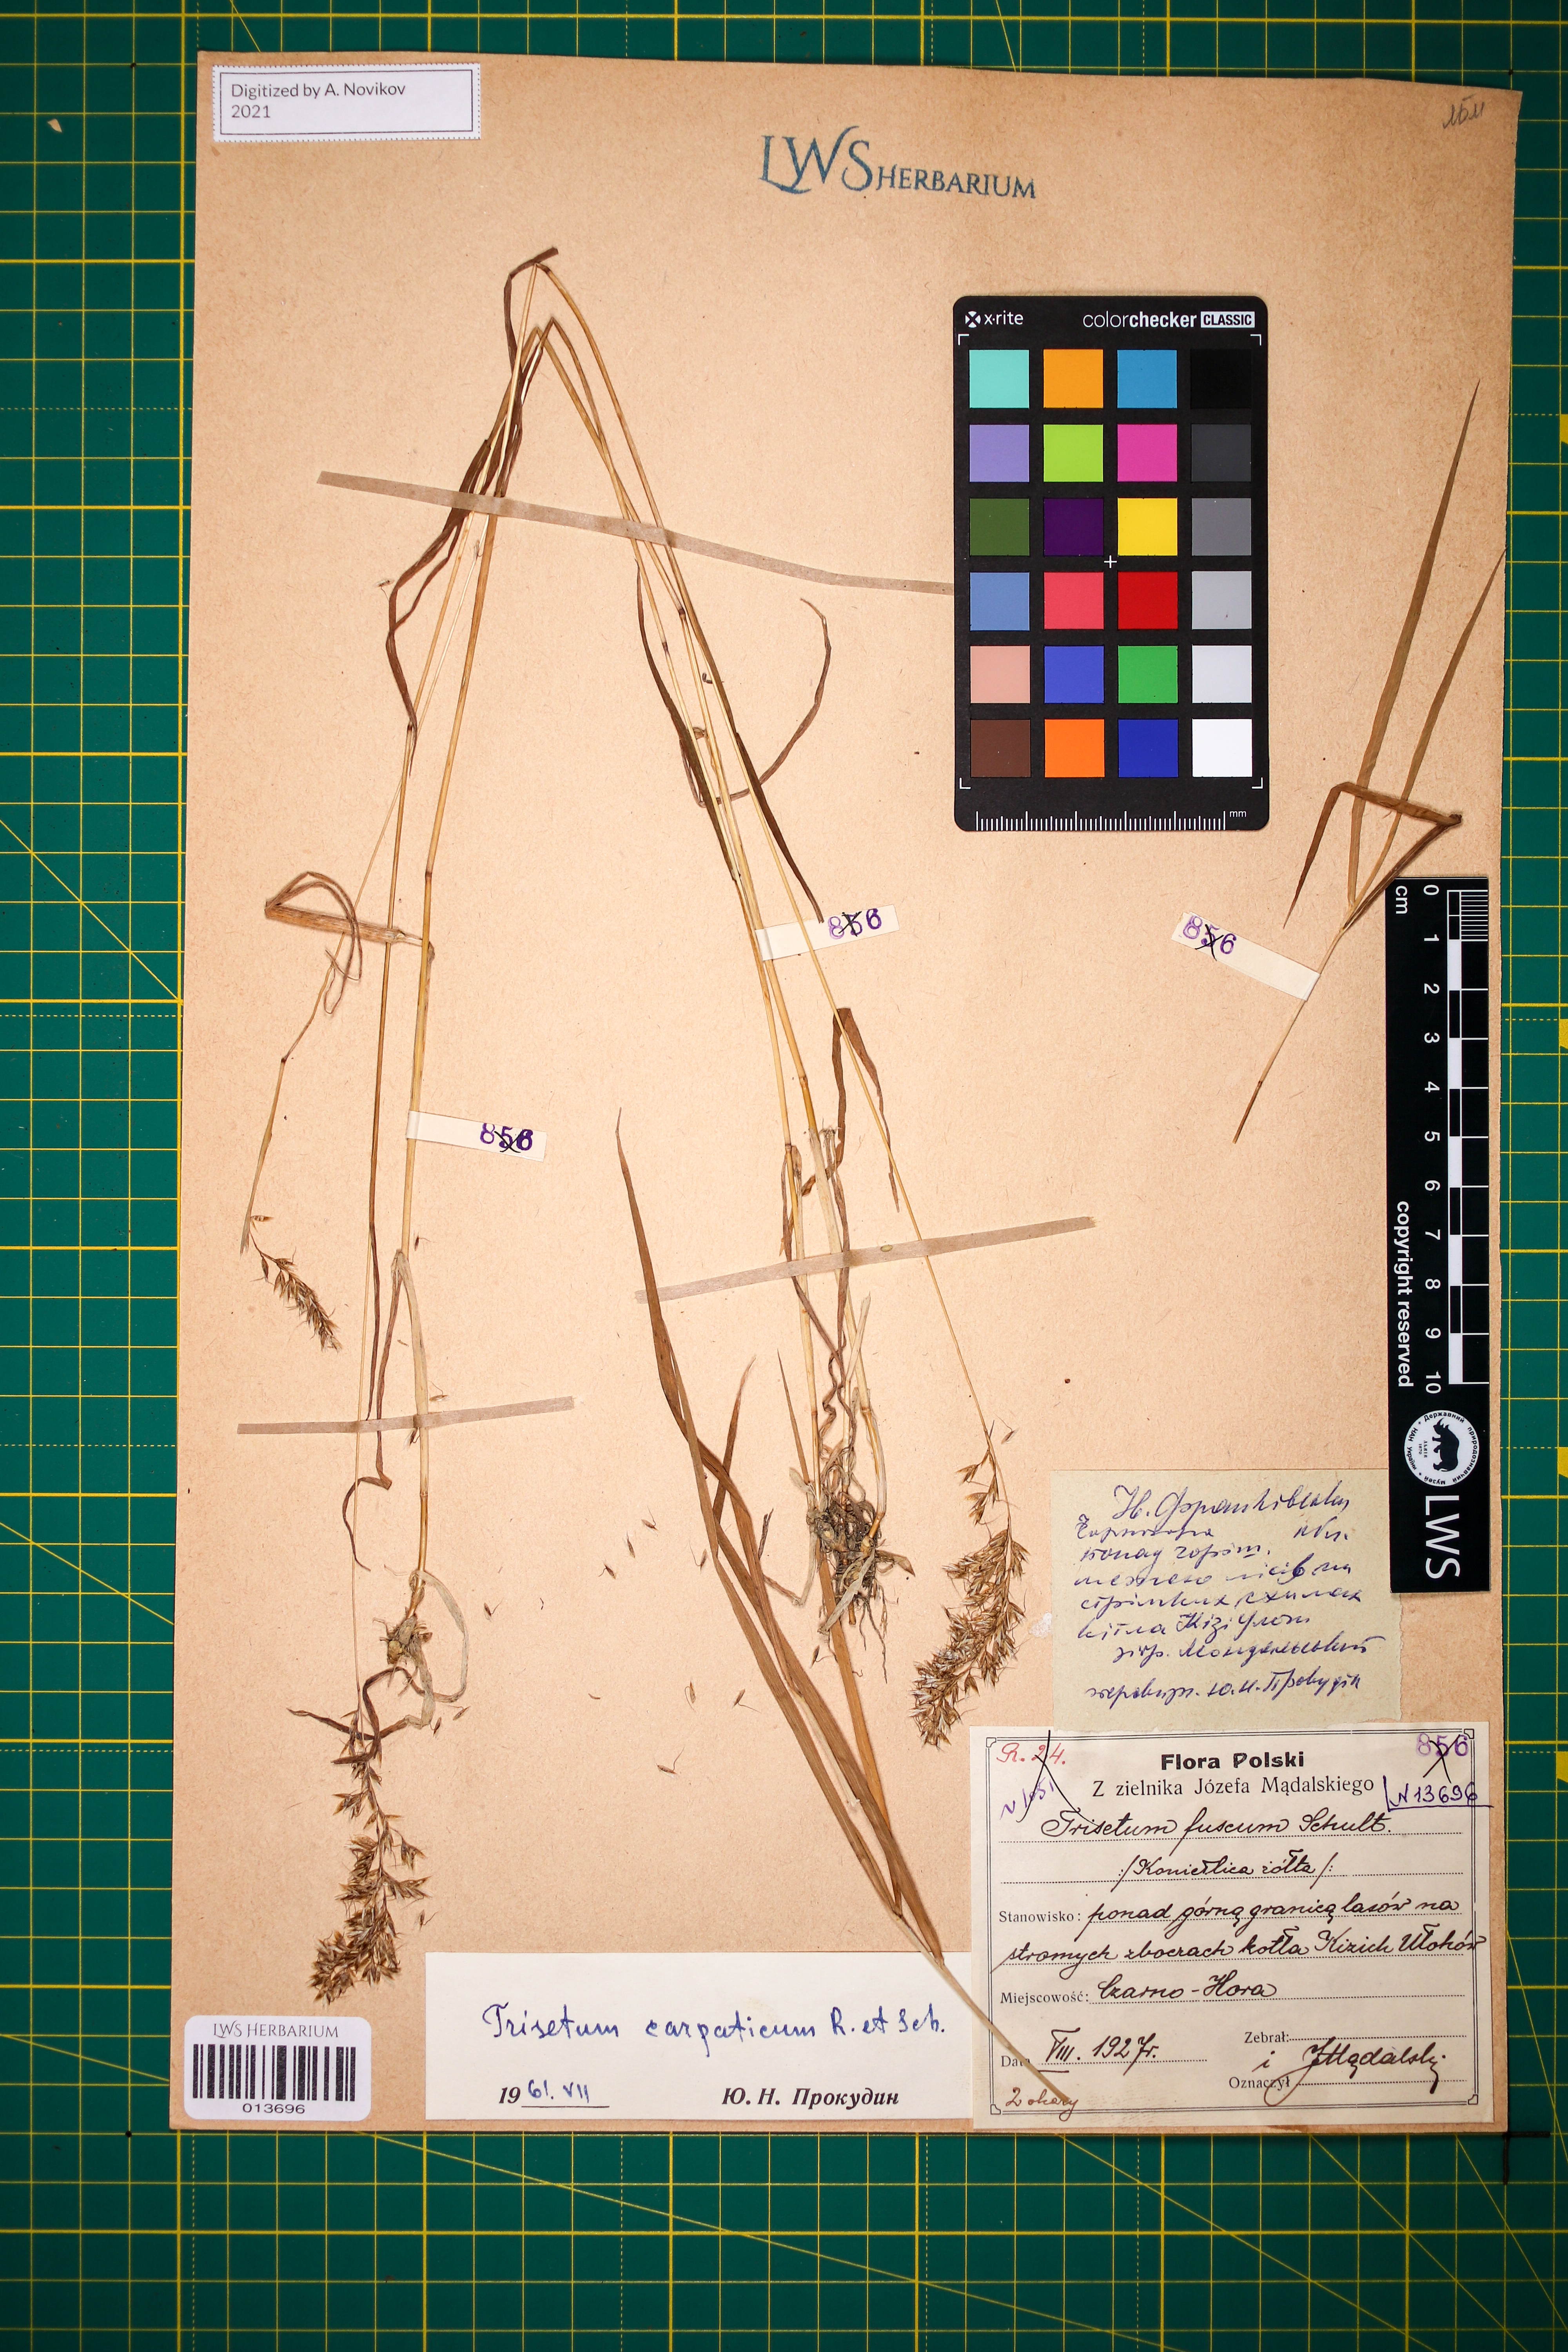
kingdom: Plantae
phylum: Tracheophyta
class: Liliopsida
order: Poales
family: Poaceae
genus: Trisetum
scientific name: Trisetum fuscum
